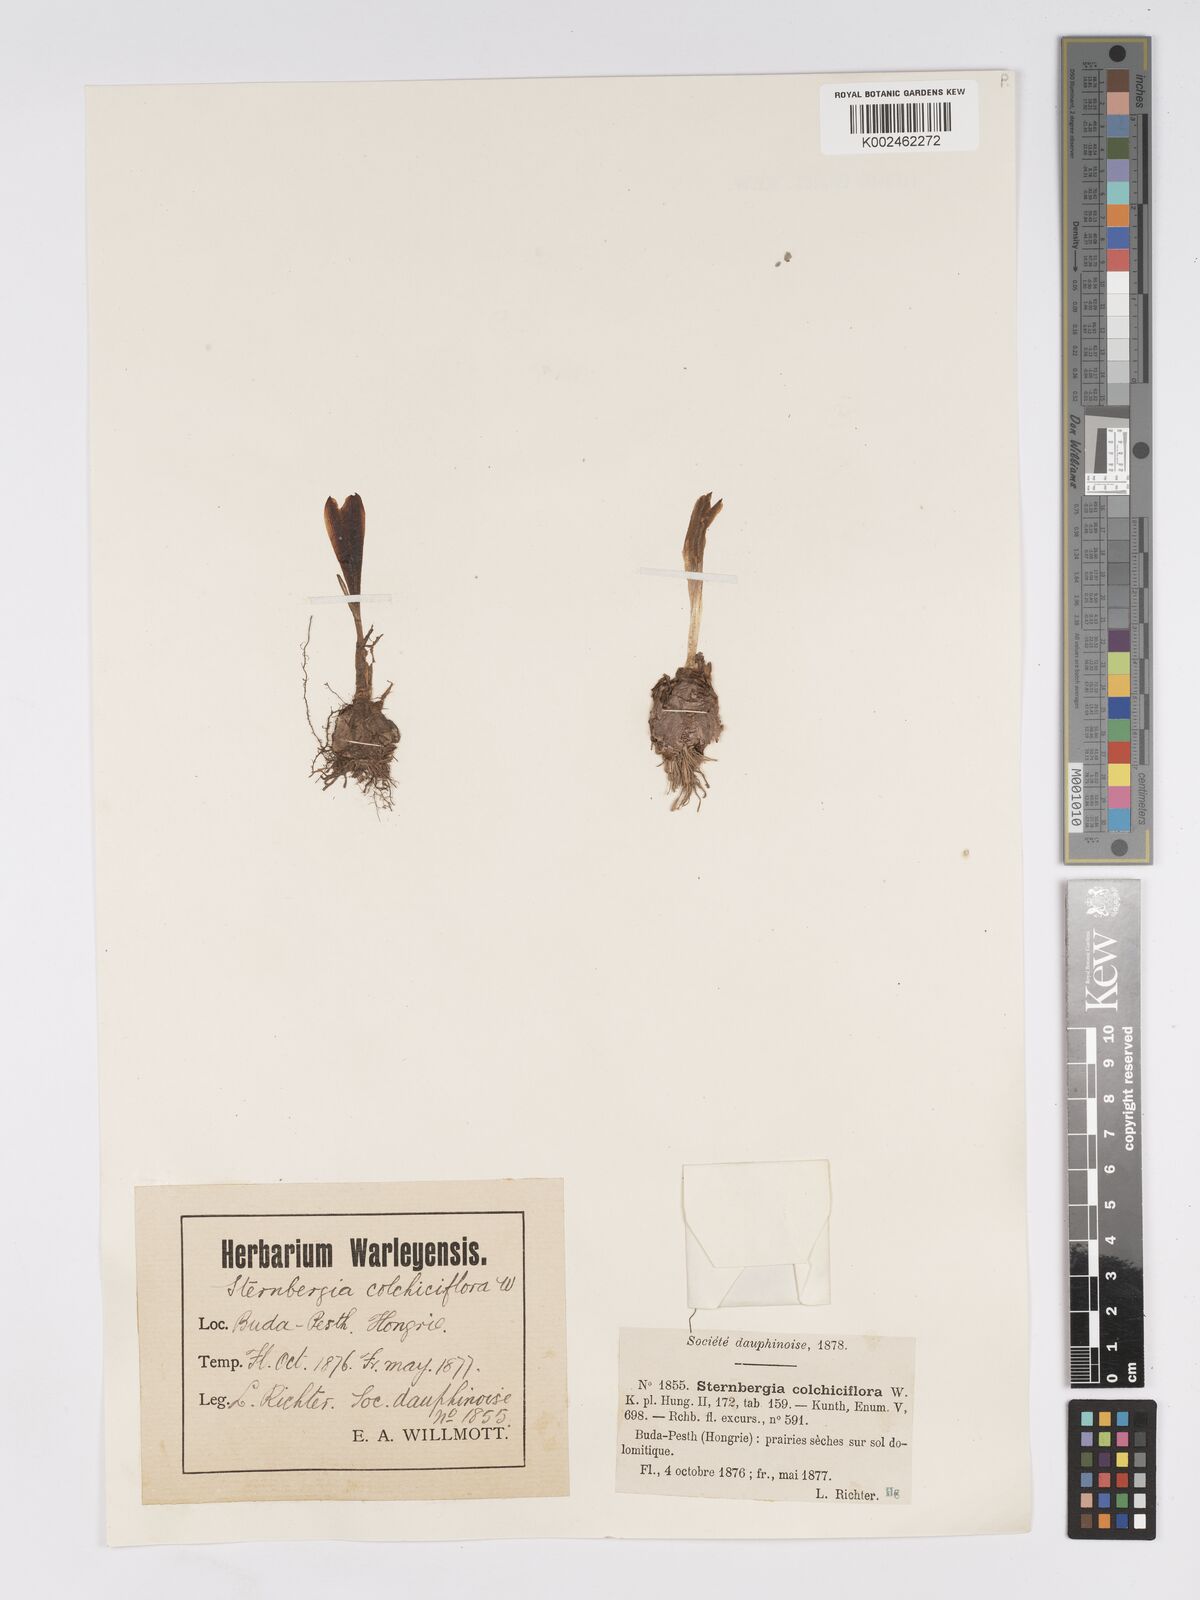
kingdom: Plantae
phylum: Tracheophyta
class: Liliopsida
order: Asparagales
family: Amaryllidaceae
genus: Sternbergia
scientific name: Sternbergia colchiciflora
